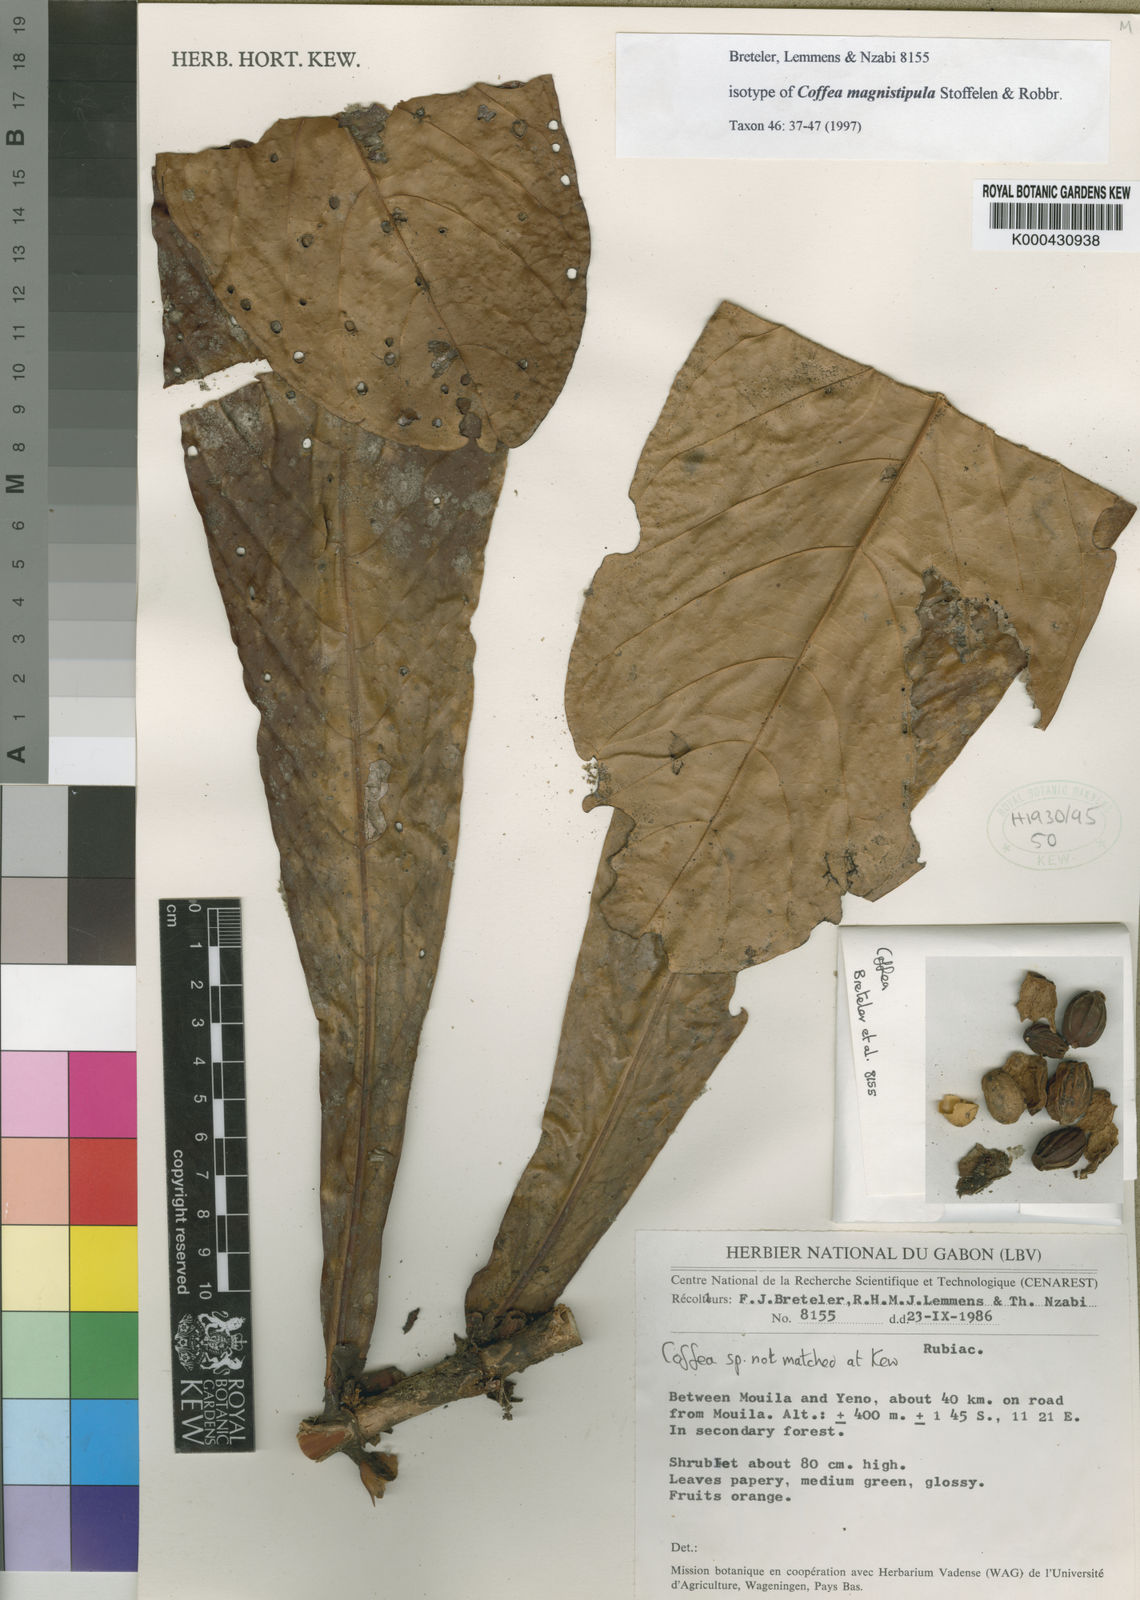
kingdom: Plantae
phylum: Tracheophyta
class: Magnoliopsida
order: Gentianales
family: Rubiaceae
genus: Coffea
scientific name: Coffea magnistipula
